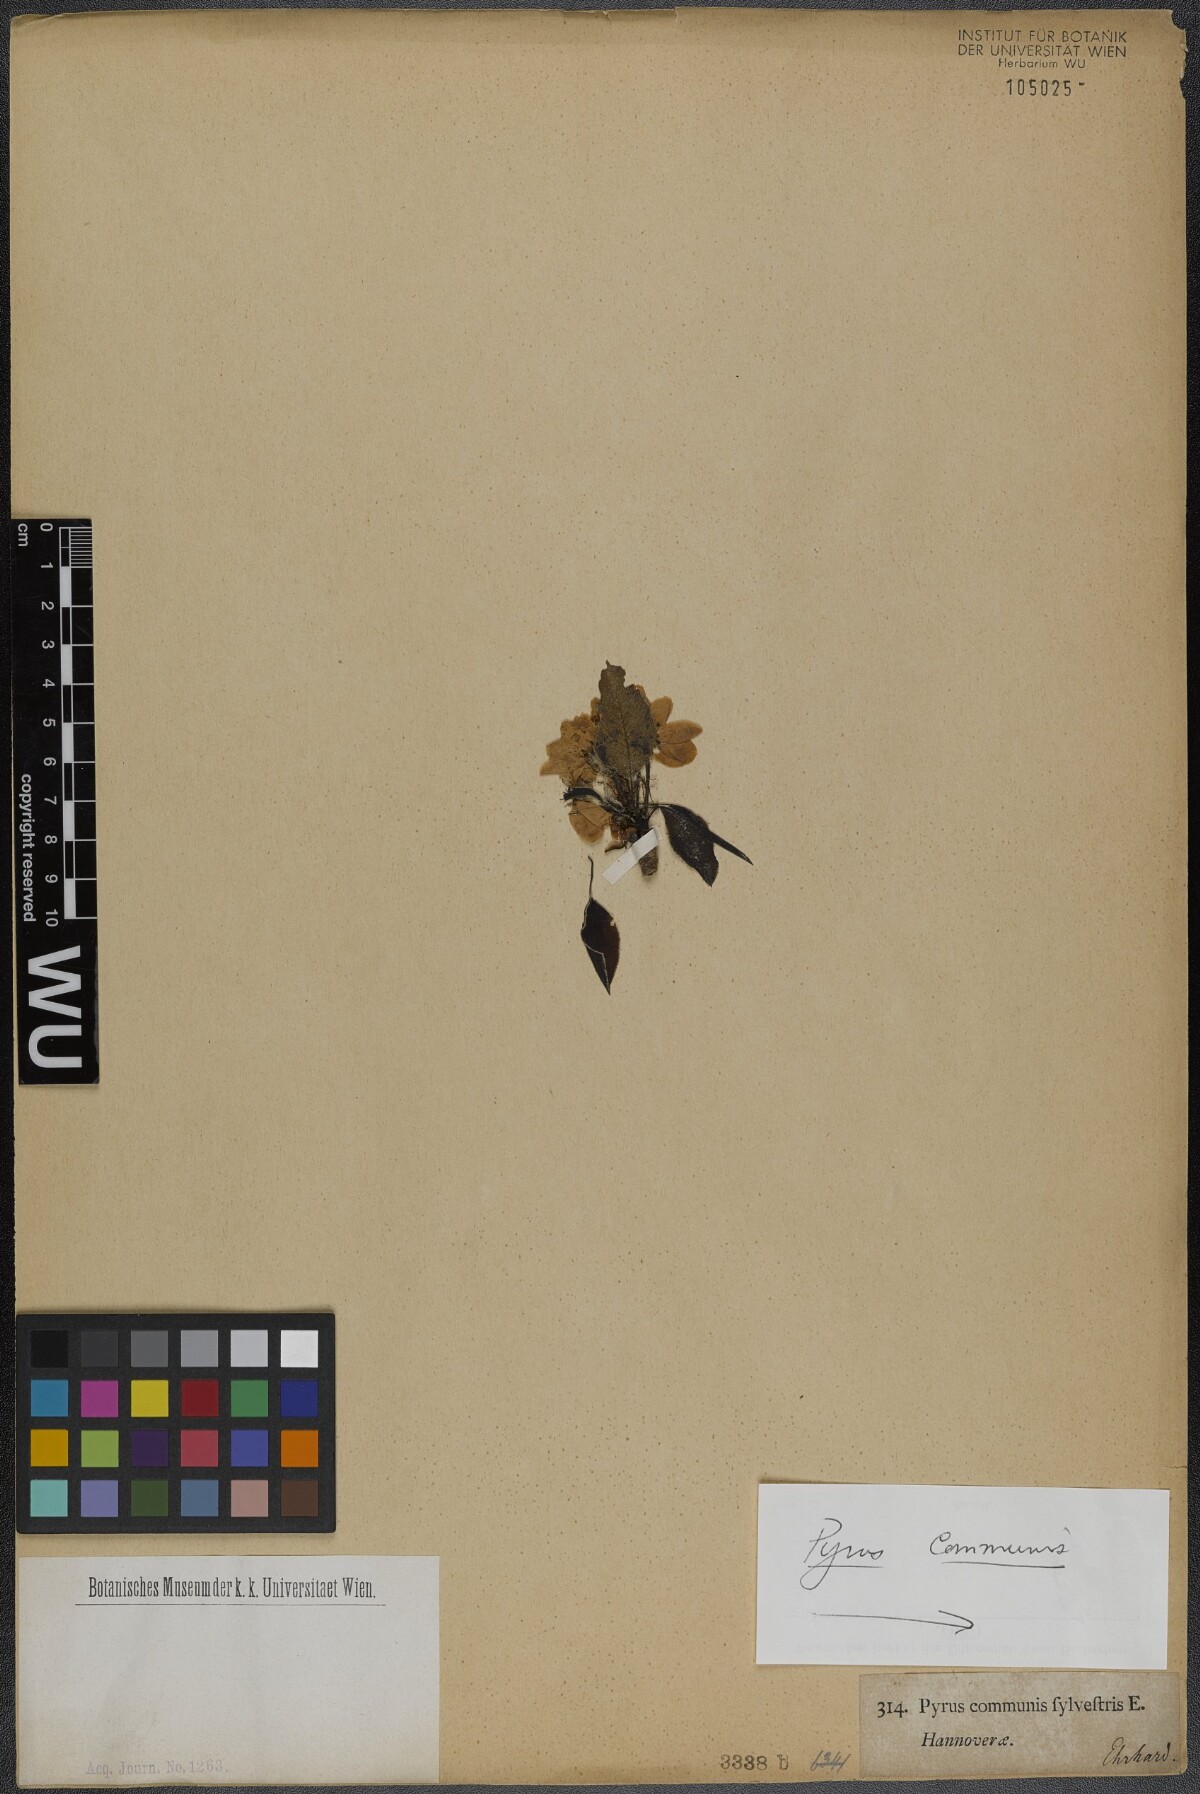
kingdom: Plantae
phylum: Tracheophyta
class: Magnoliopsida
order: Rosales
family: Rosaceae
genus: Pyrus
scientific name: Pyrus communis
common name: Pear
